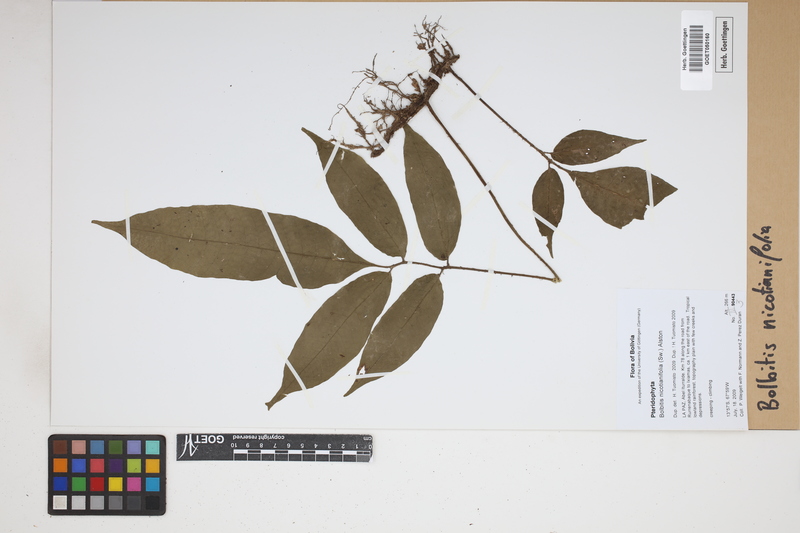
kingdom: Plantae
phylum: Tracheophyta
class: Polypodiopsida
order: Polypodiales
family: Dryopteridaceae
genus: Mickelia
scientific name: Mickelia nicotianifolia
